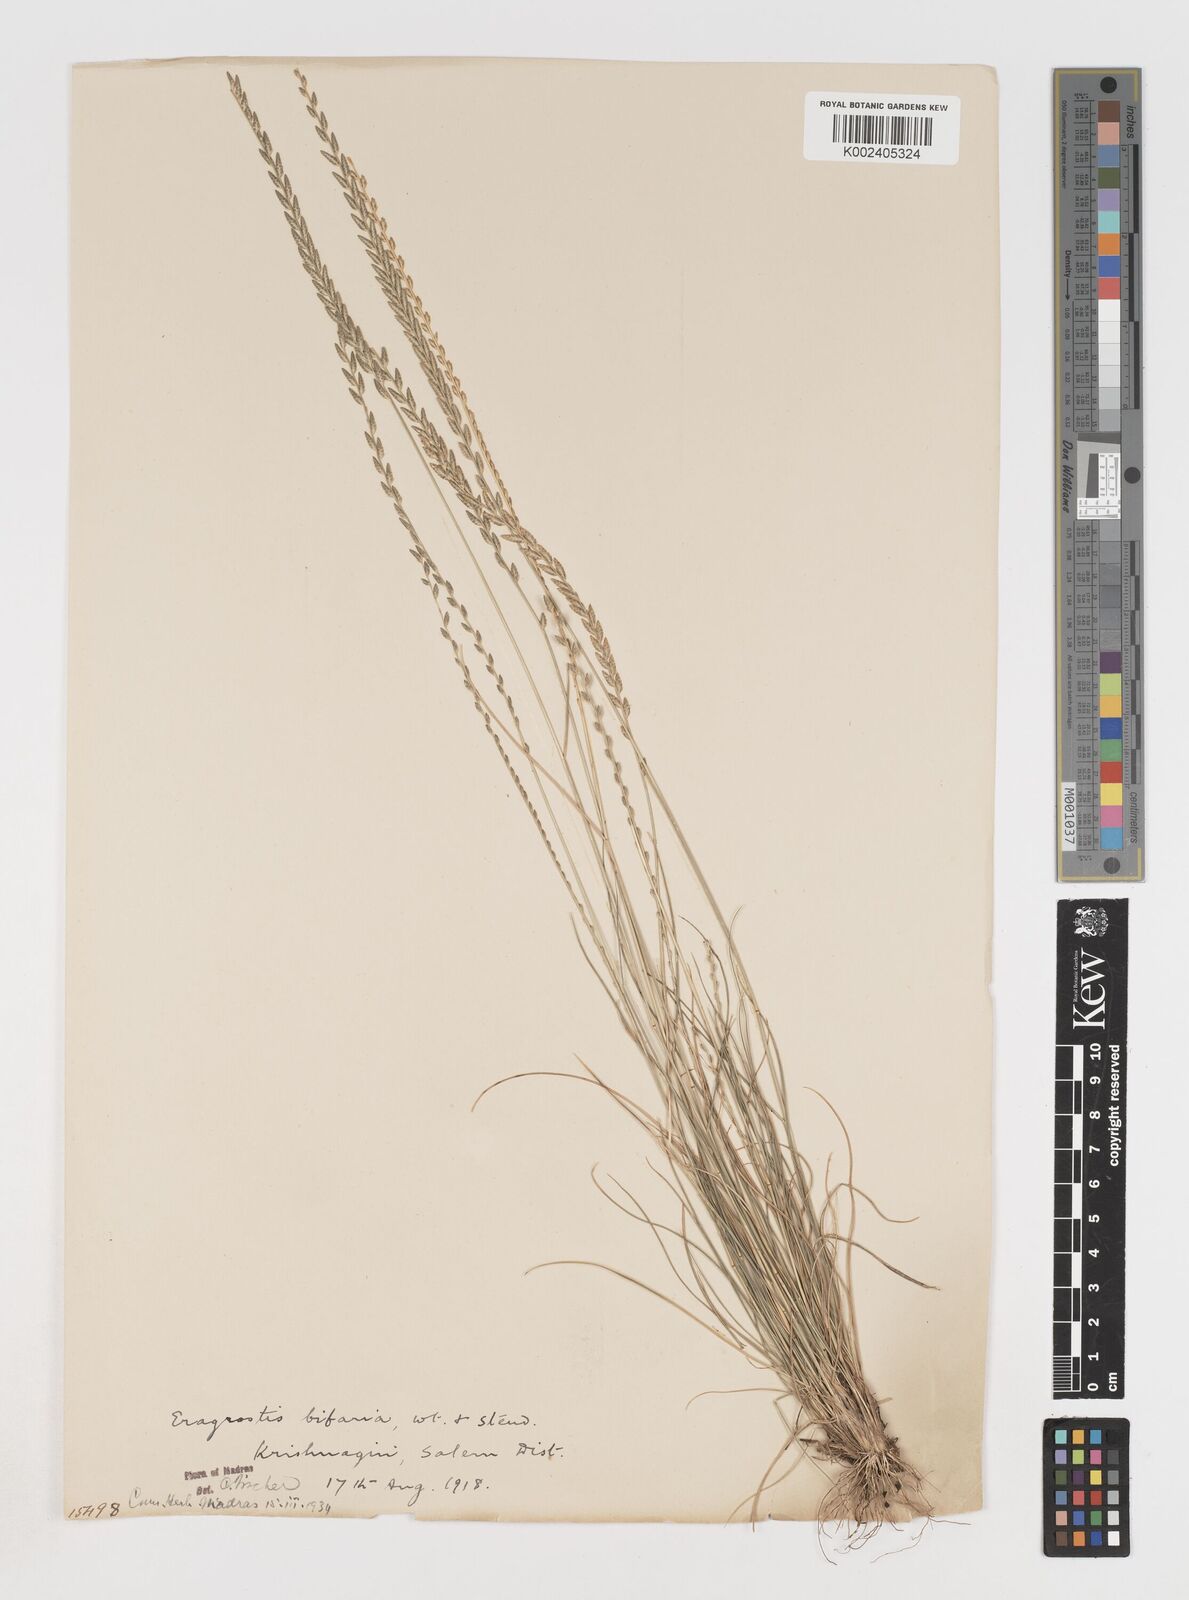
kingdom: Plantae
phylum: Tracheophyta
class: Liliopsida
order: Poales
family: Poaceae
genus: Eragrostiella
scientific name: Eragrostiella bifaria
